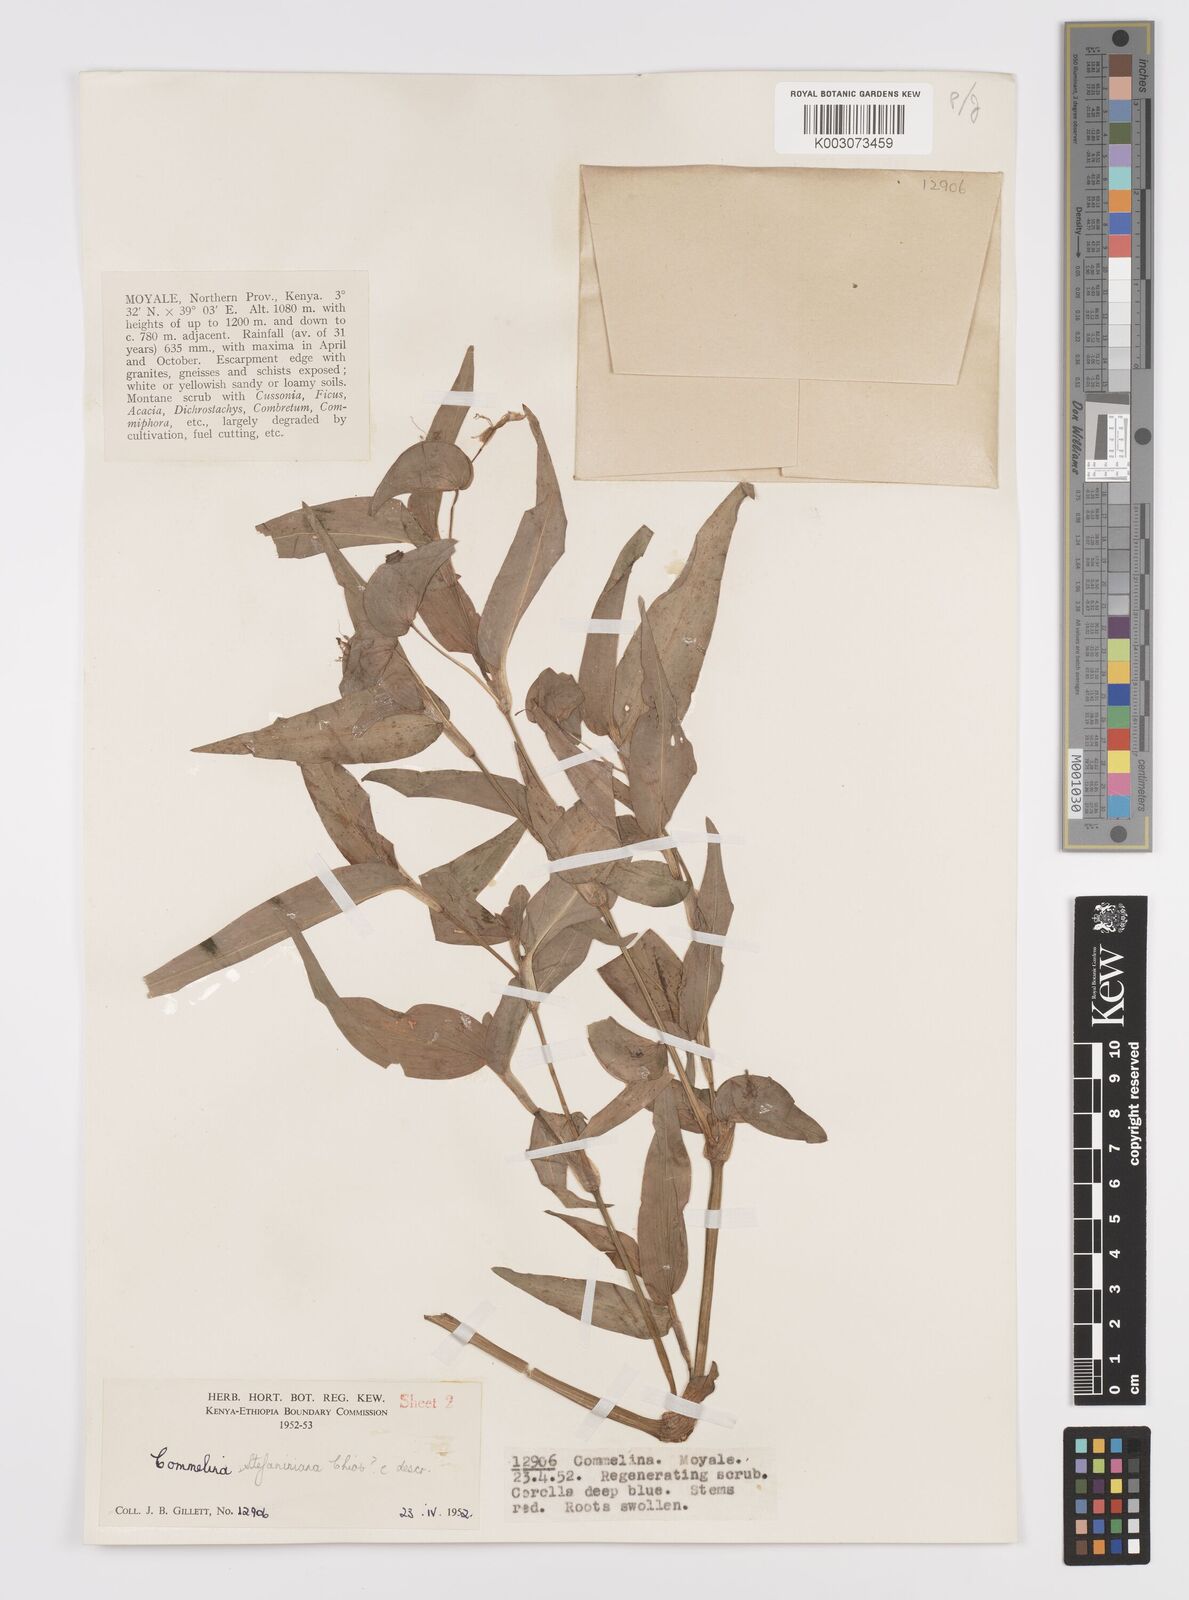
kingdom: Plantae
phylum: Tracheophyta
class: Liliopsida
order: Commelinales
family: Commelinaceae
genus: Commelina
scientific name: Commelina stefaniniana
